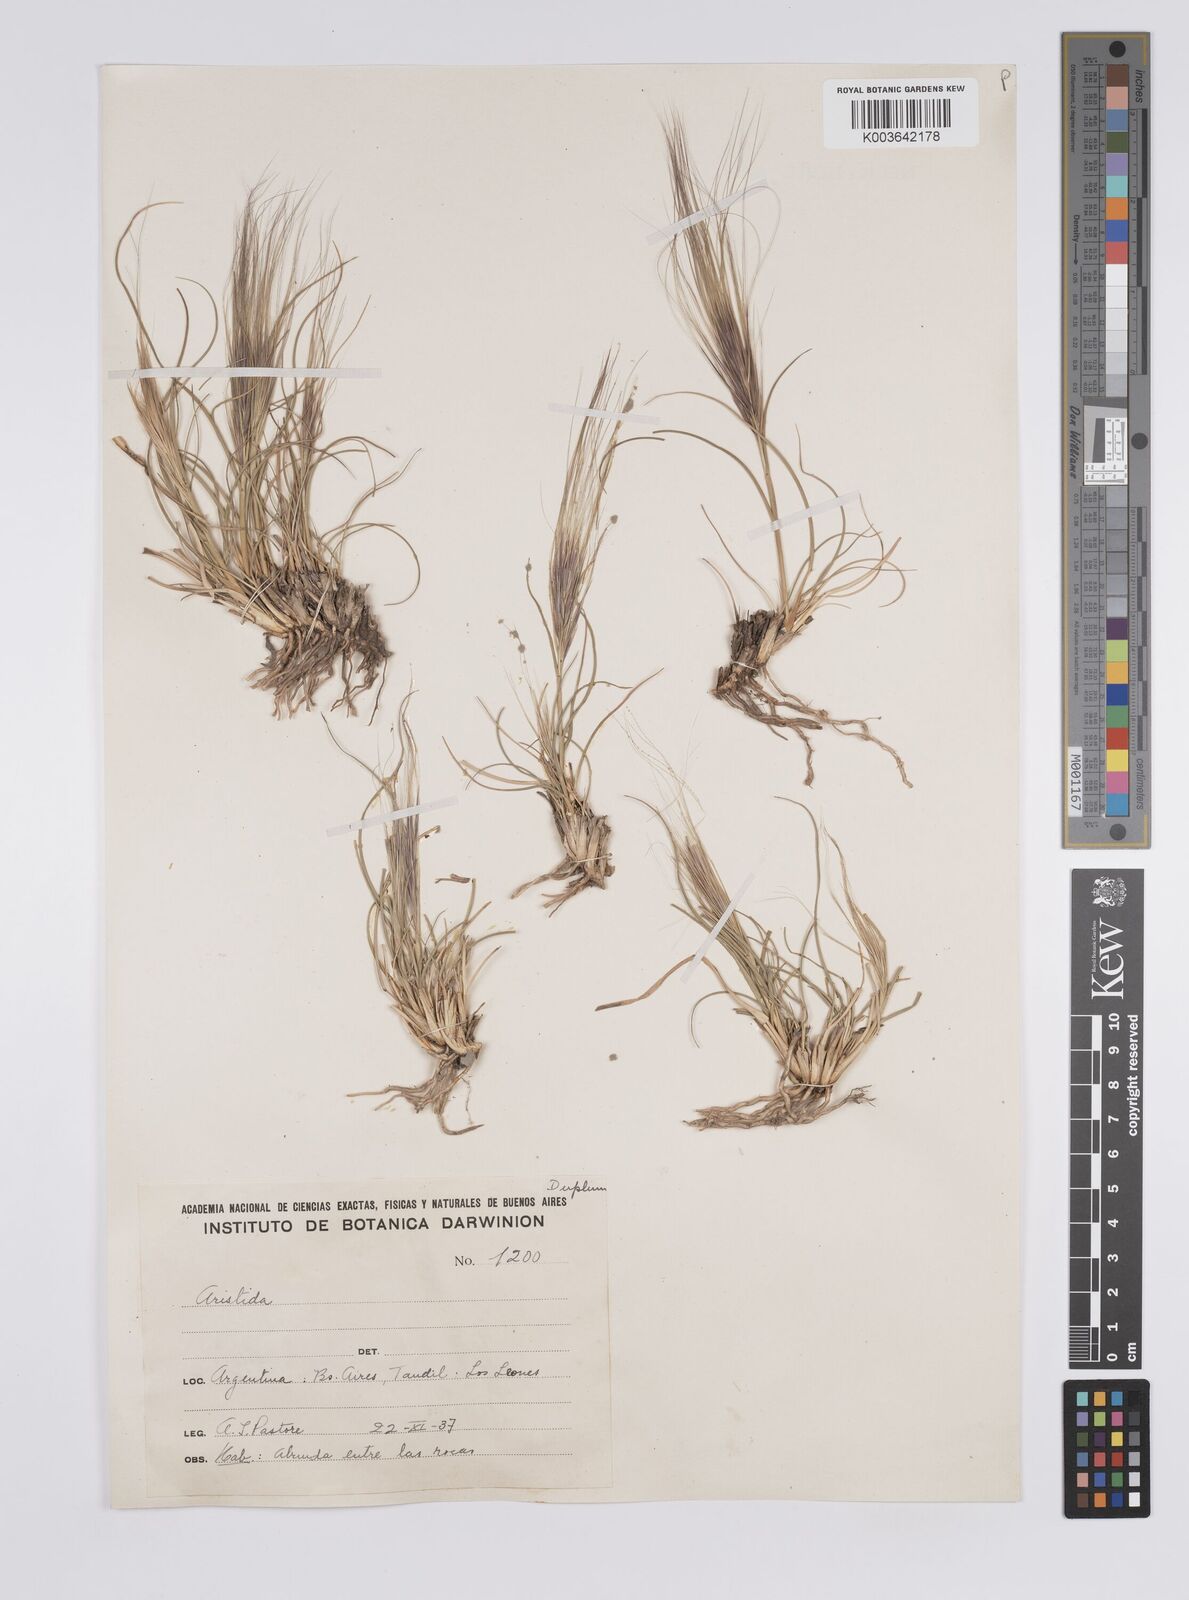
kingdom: Plantae
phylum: Tracheophyta
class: Liliopsida
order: Poales
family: Poaceae
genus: Aristida
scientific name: Aristida
